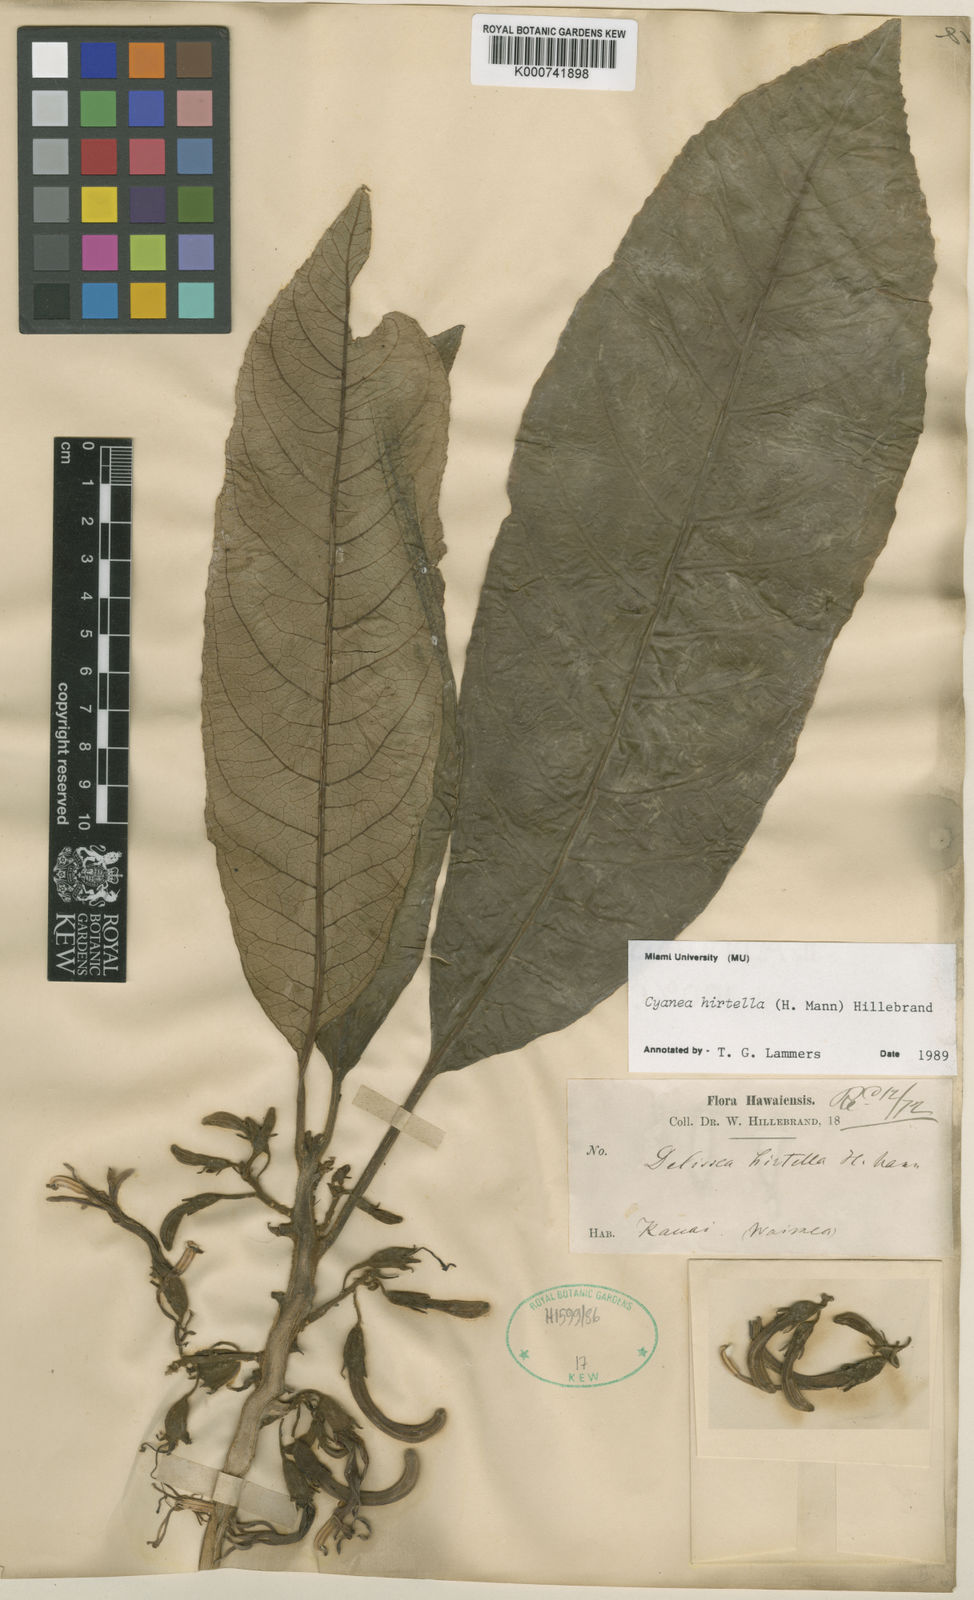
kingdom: Plantae
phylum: Tracheophyta
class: Magnoliopsida
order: Asterales
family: Campanulaceae
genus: Cyanea
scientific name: Cyanea hirtella
